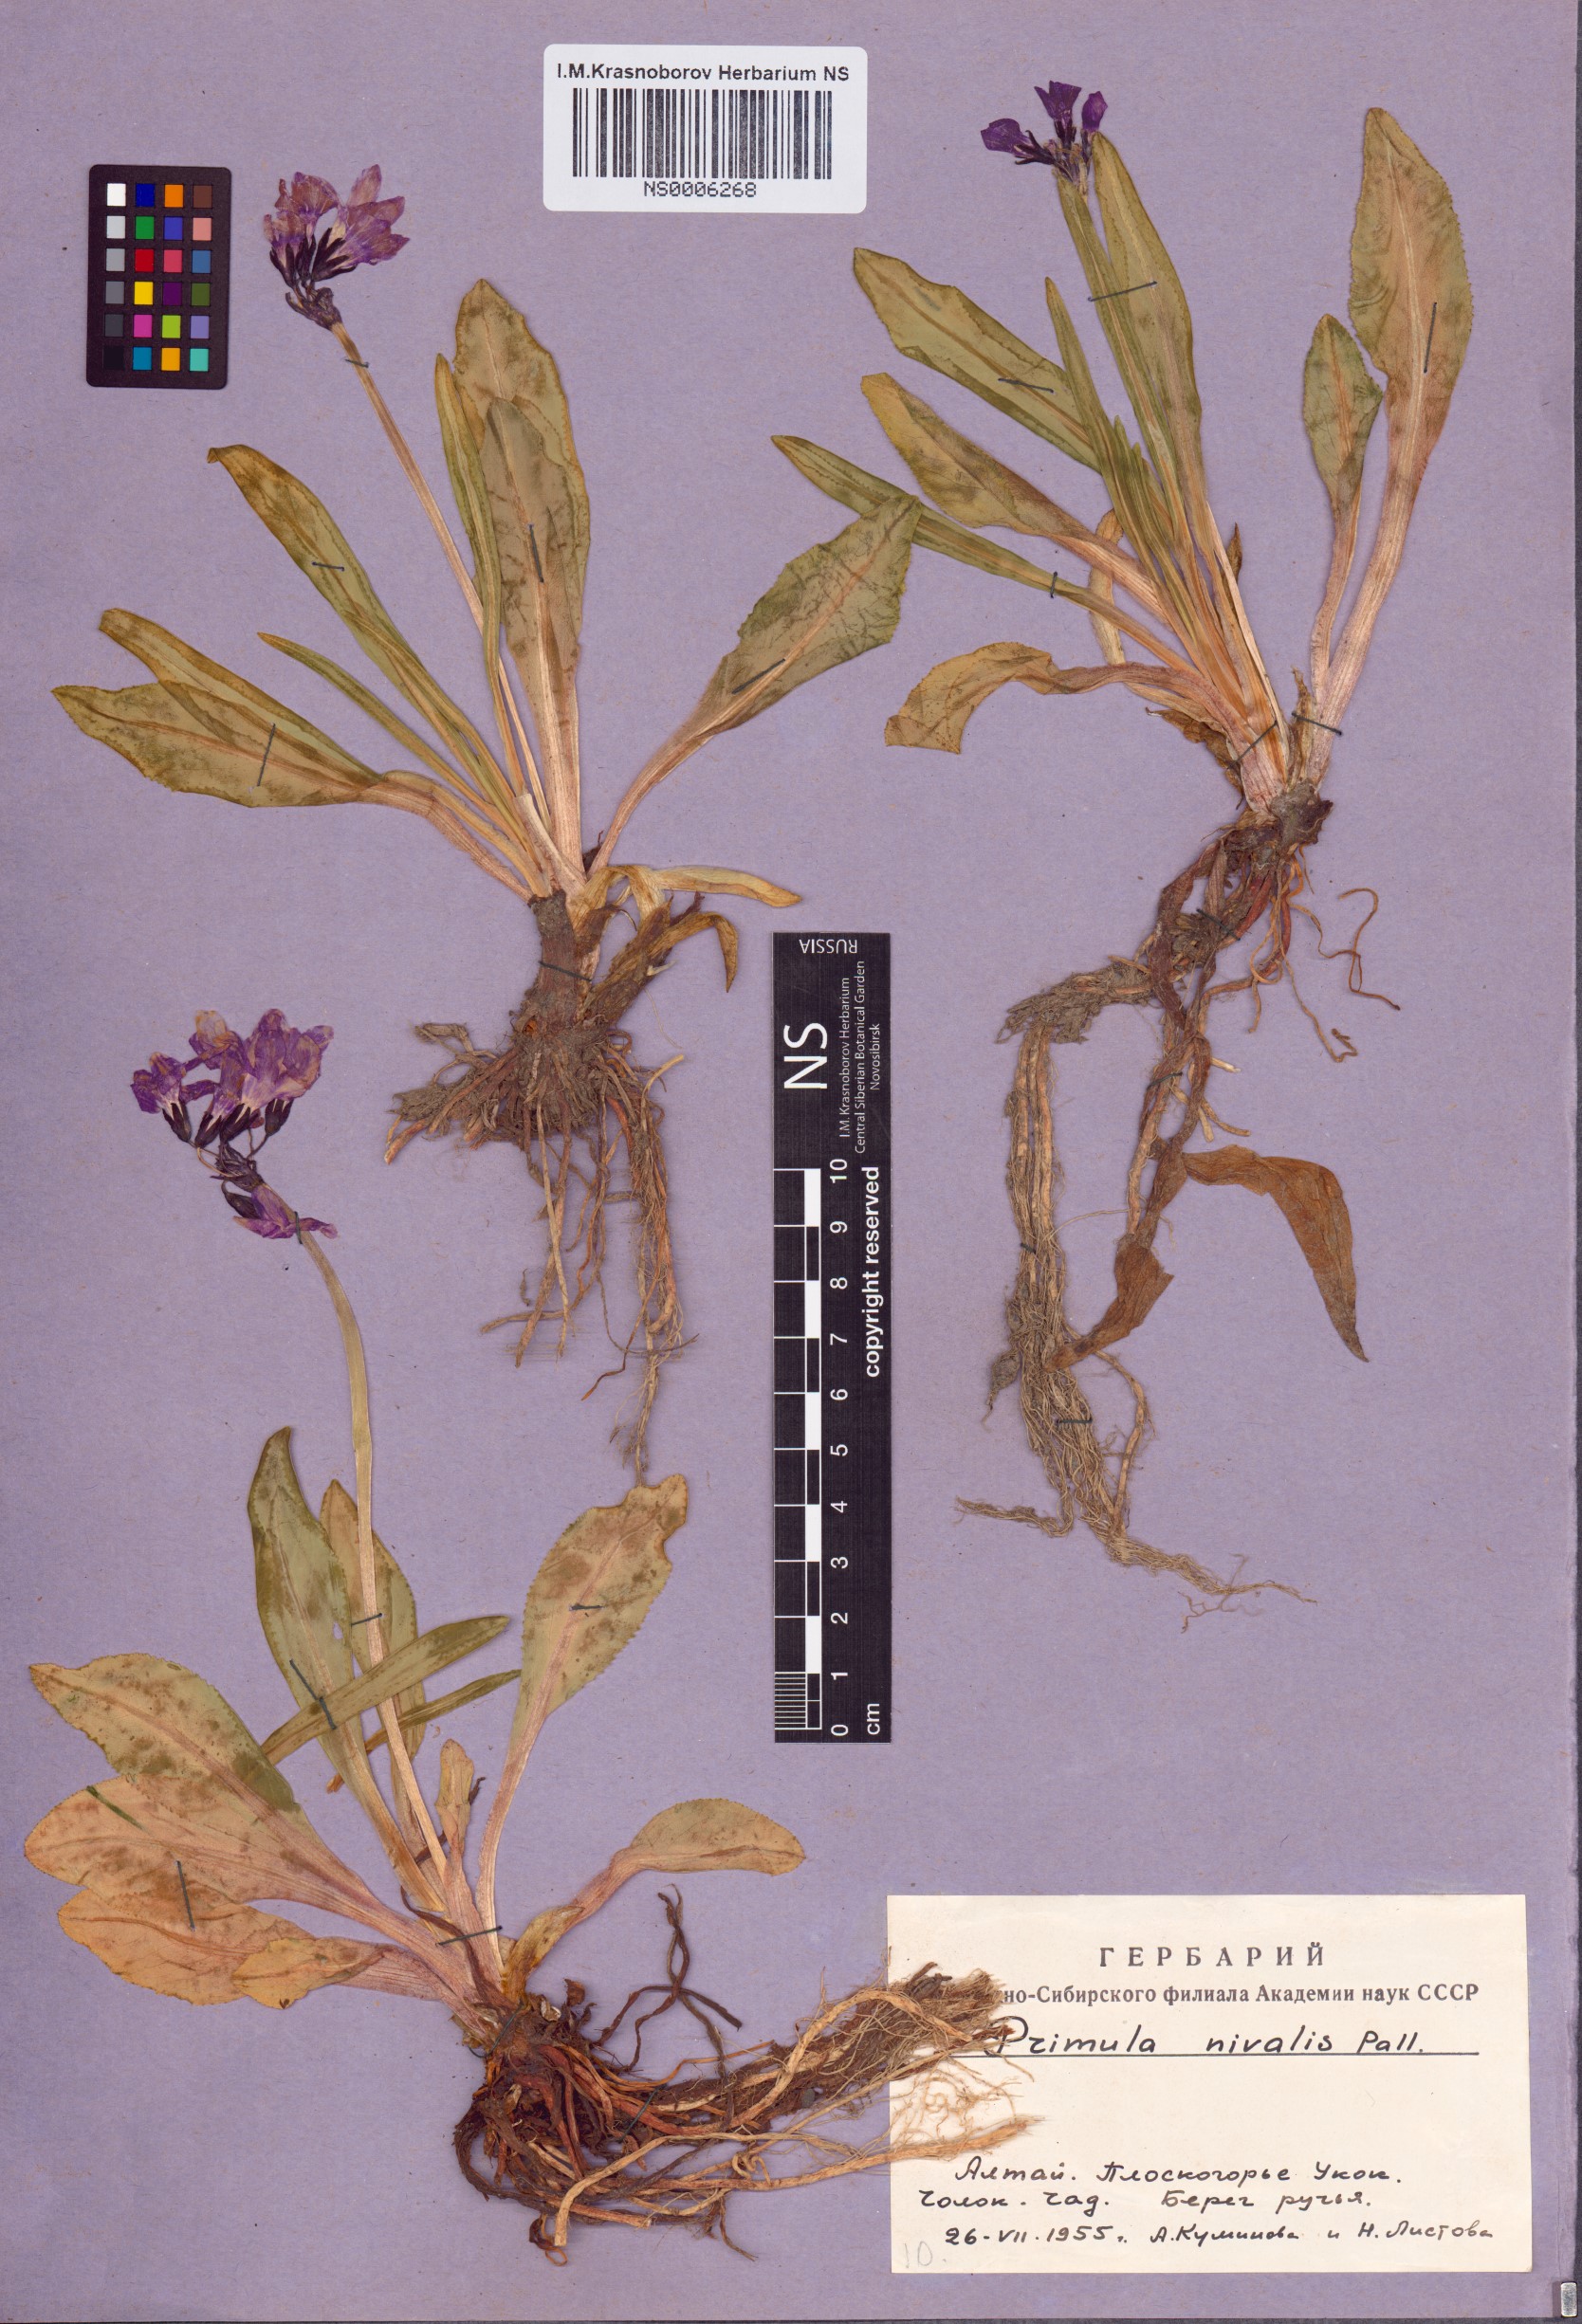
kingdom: Plantae
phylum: Tracheophyta
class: Magnoliopsida
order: Ericales
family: Primulaceae
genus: Primula
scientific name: Primula nivalis
